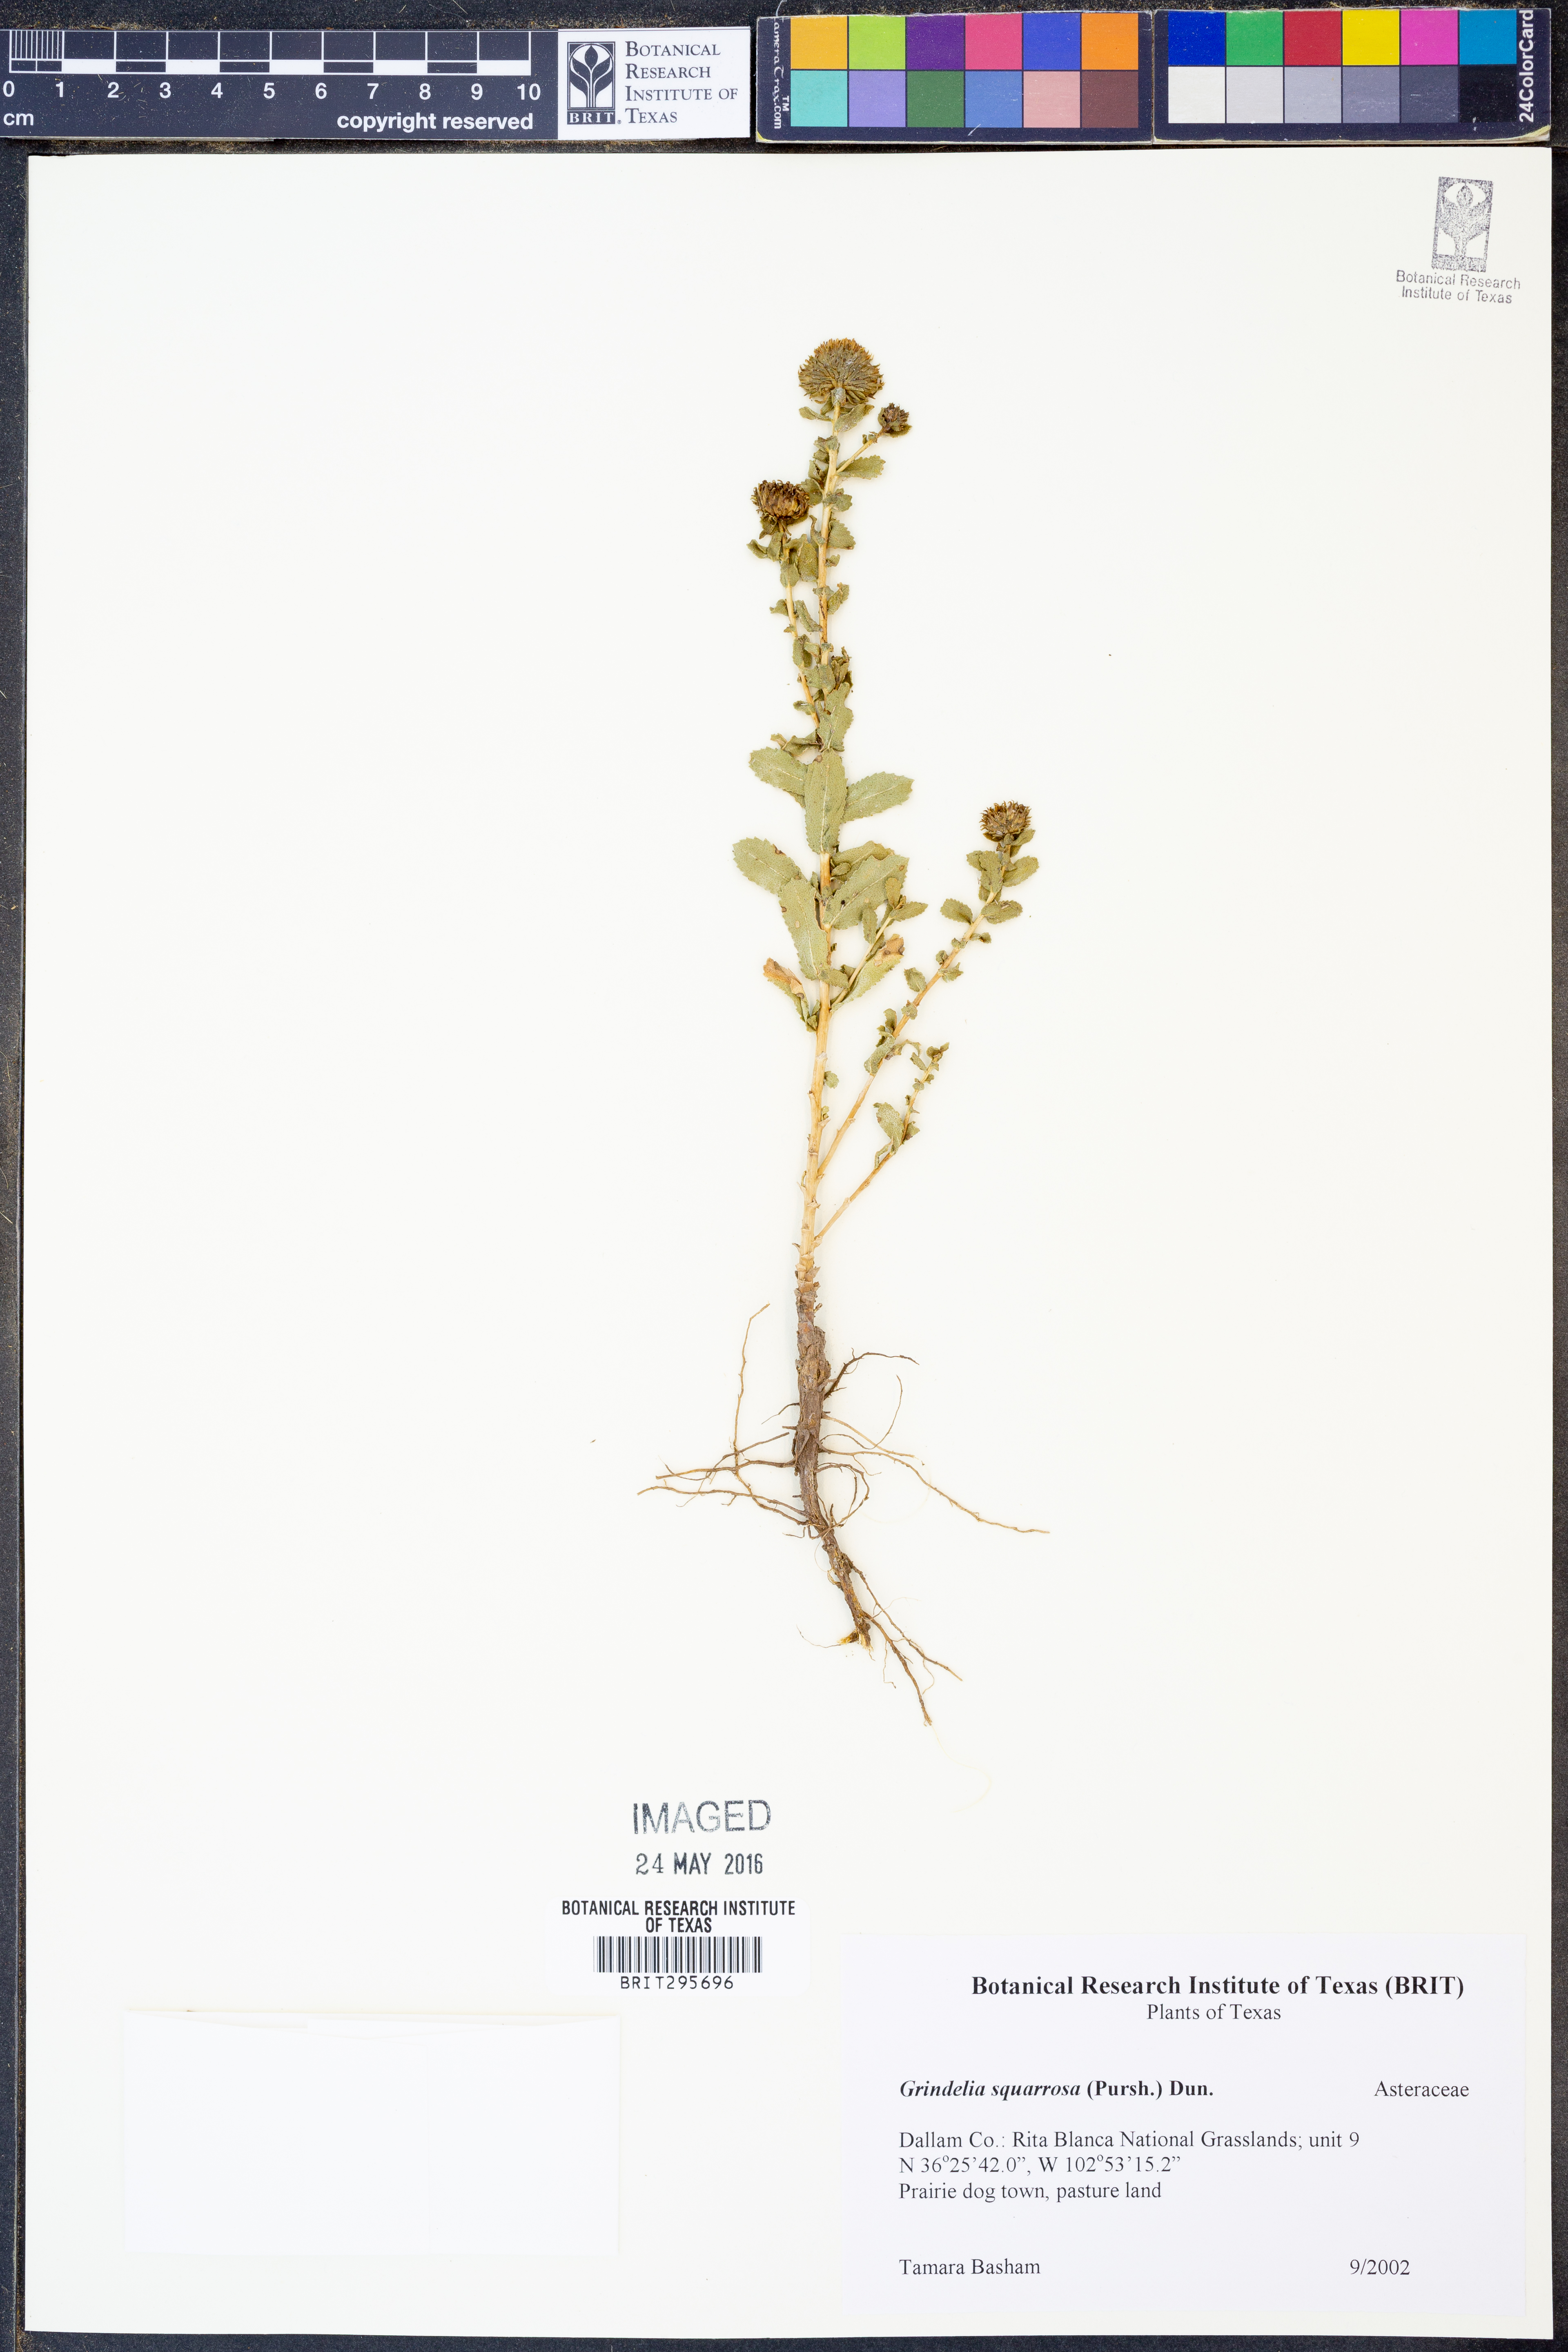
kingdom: Plantae
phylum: Tracheophyta
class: Magnoliopsida
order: Asterales
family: Asteraceae
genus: Grindelia
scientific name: Grindelia squarrosa
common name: Curly-cup gumweed
